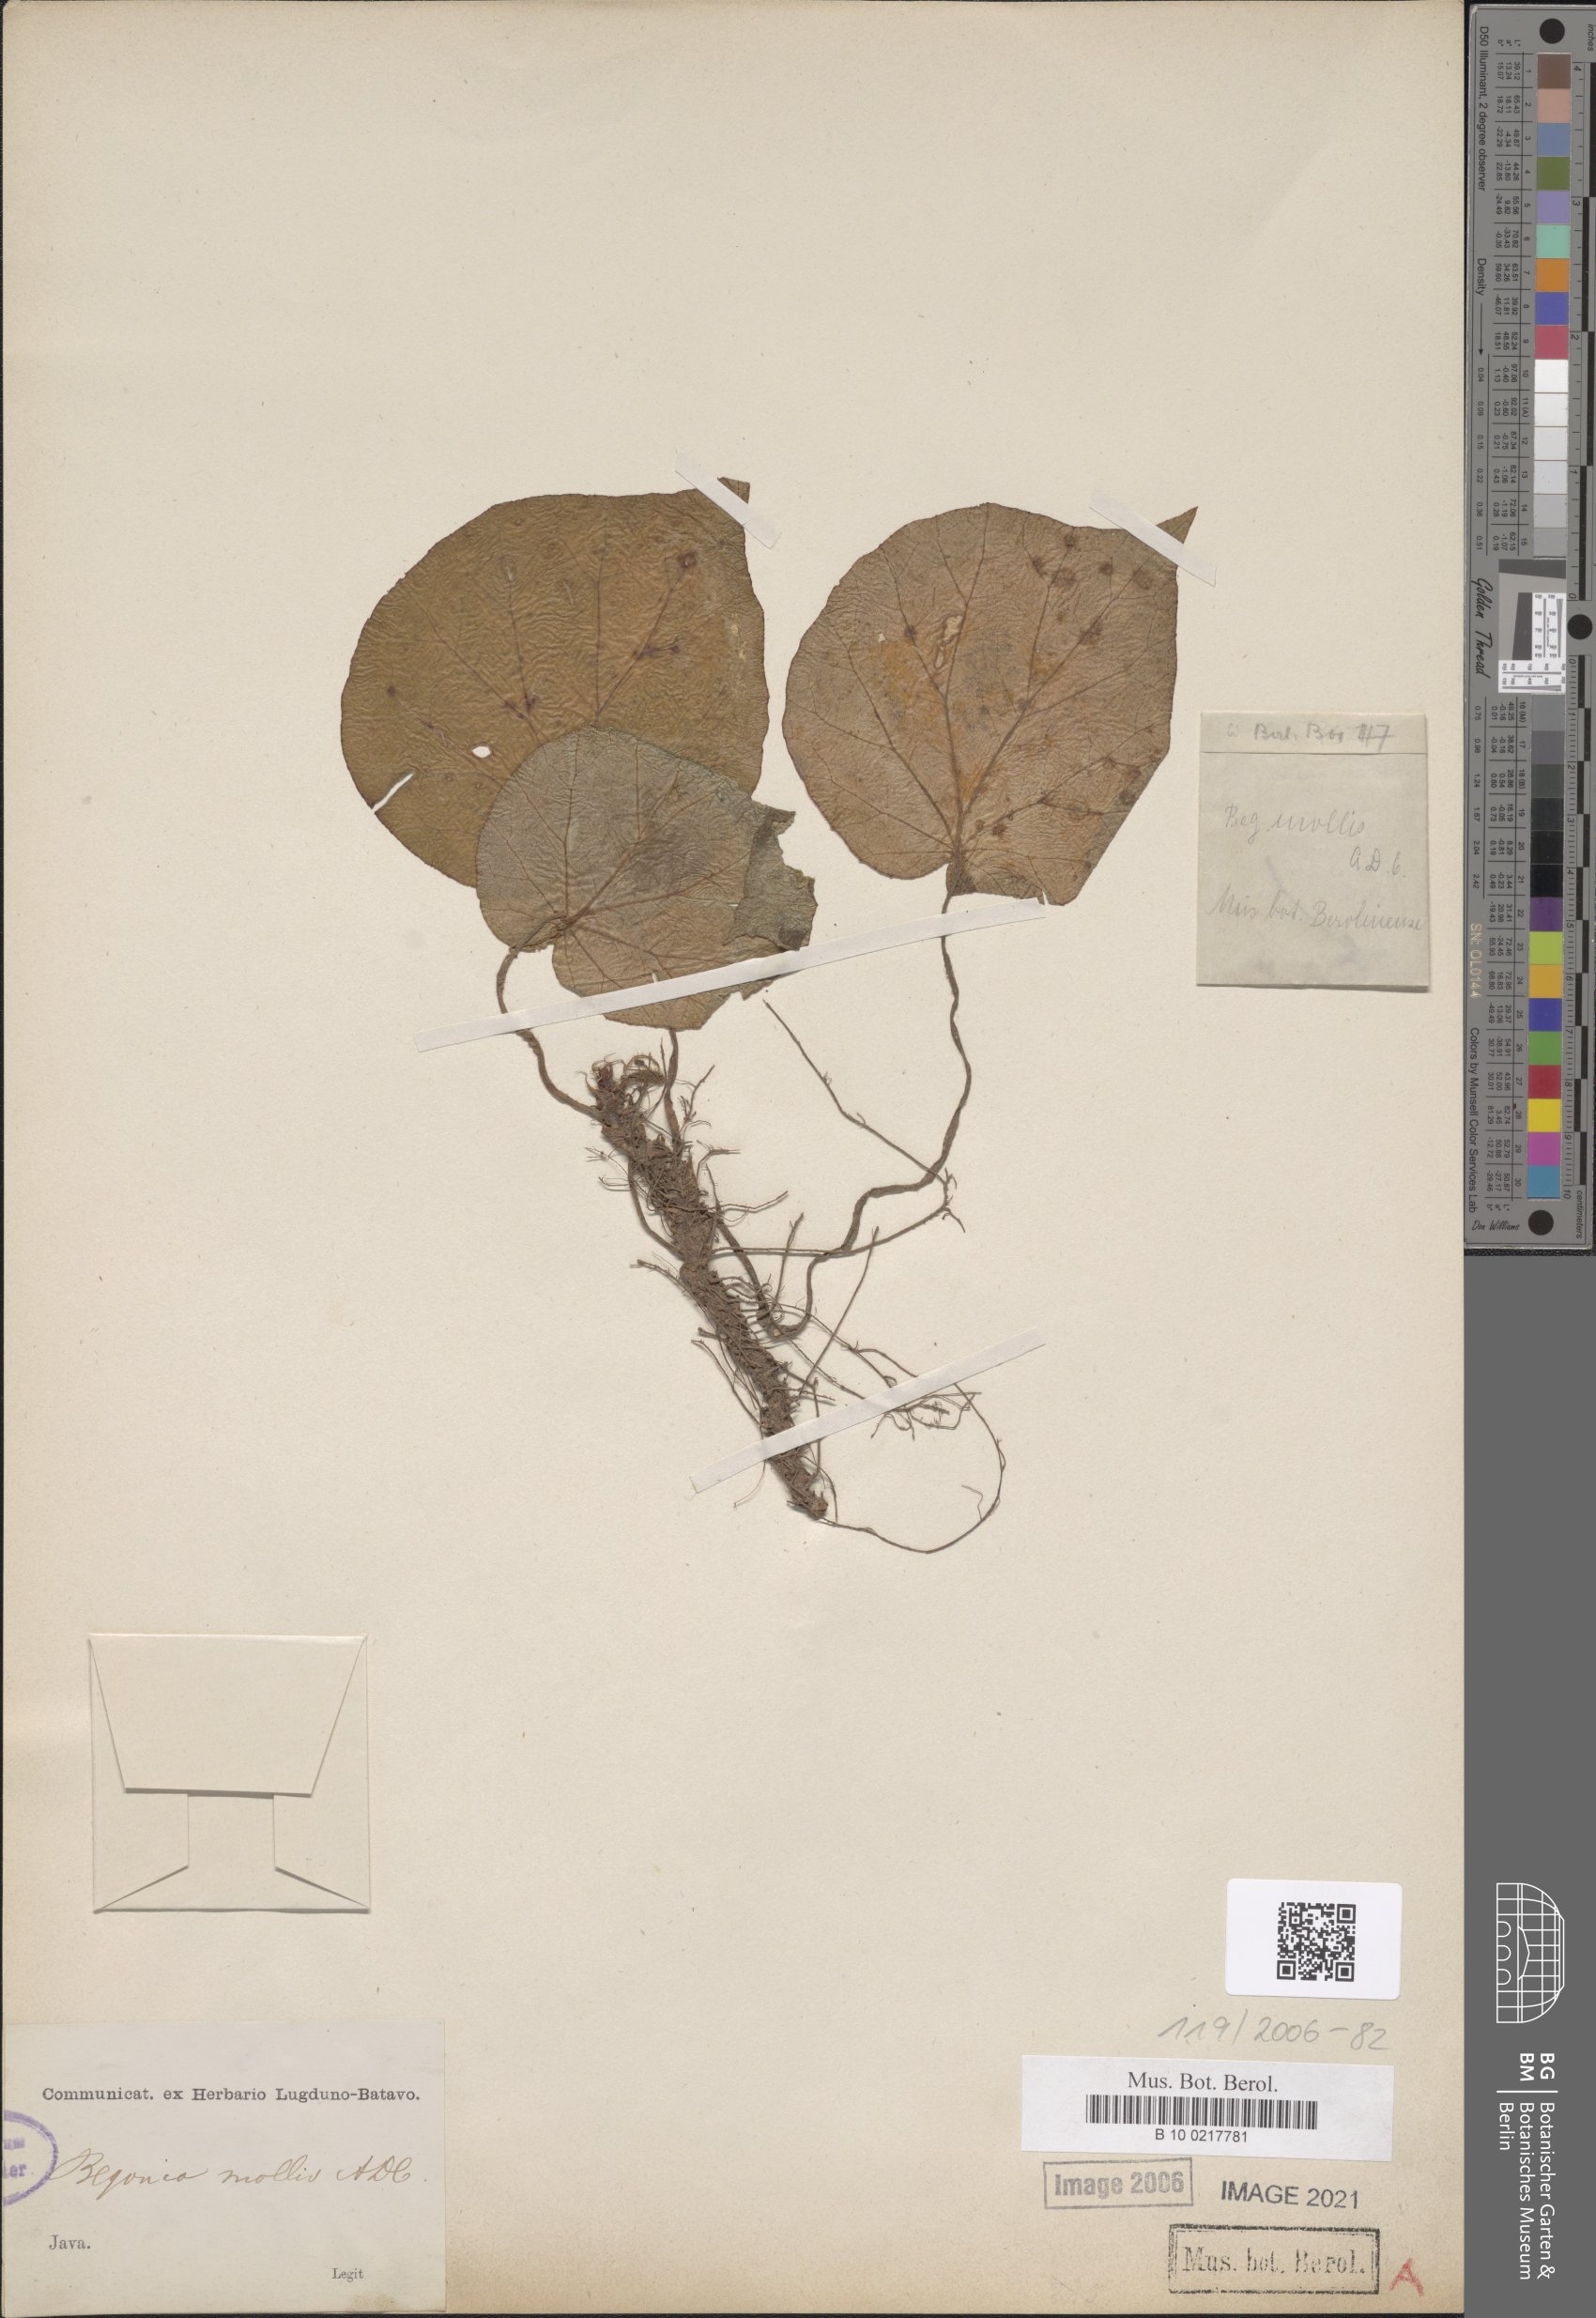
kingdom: Plantae
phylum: Tracheophyta
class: Magnoliopsida
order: Cucurbitales
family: Begoniaceae
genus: Begonia
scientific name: Begonia mollis
